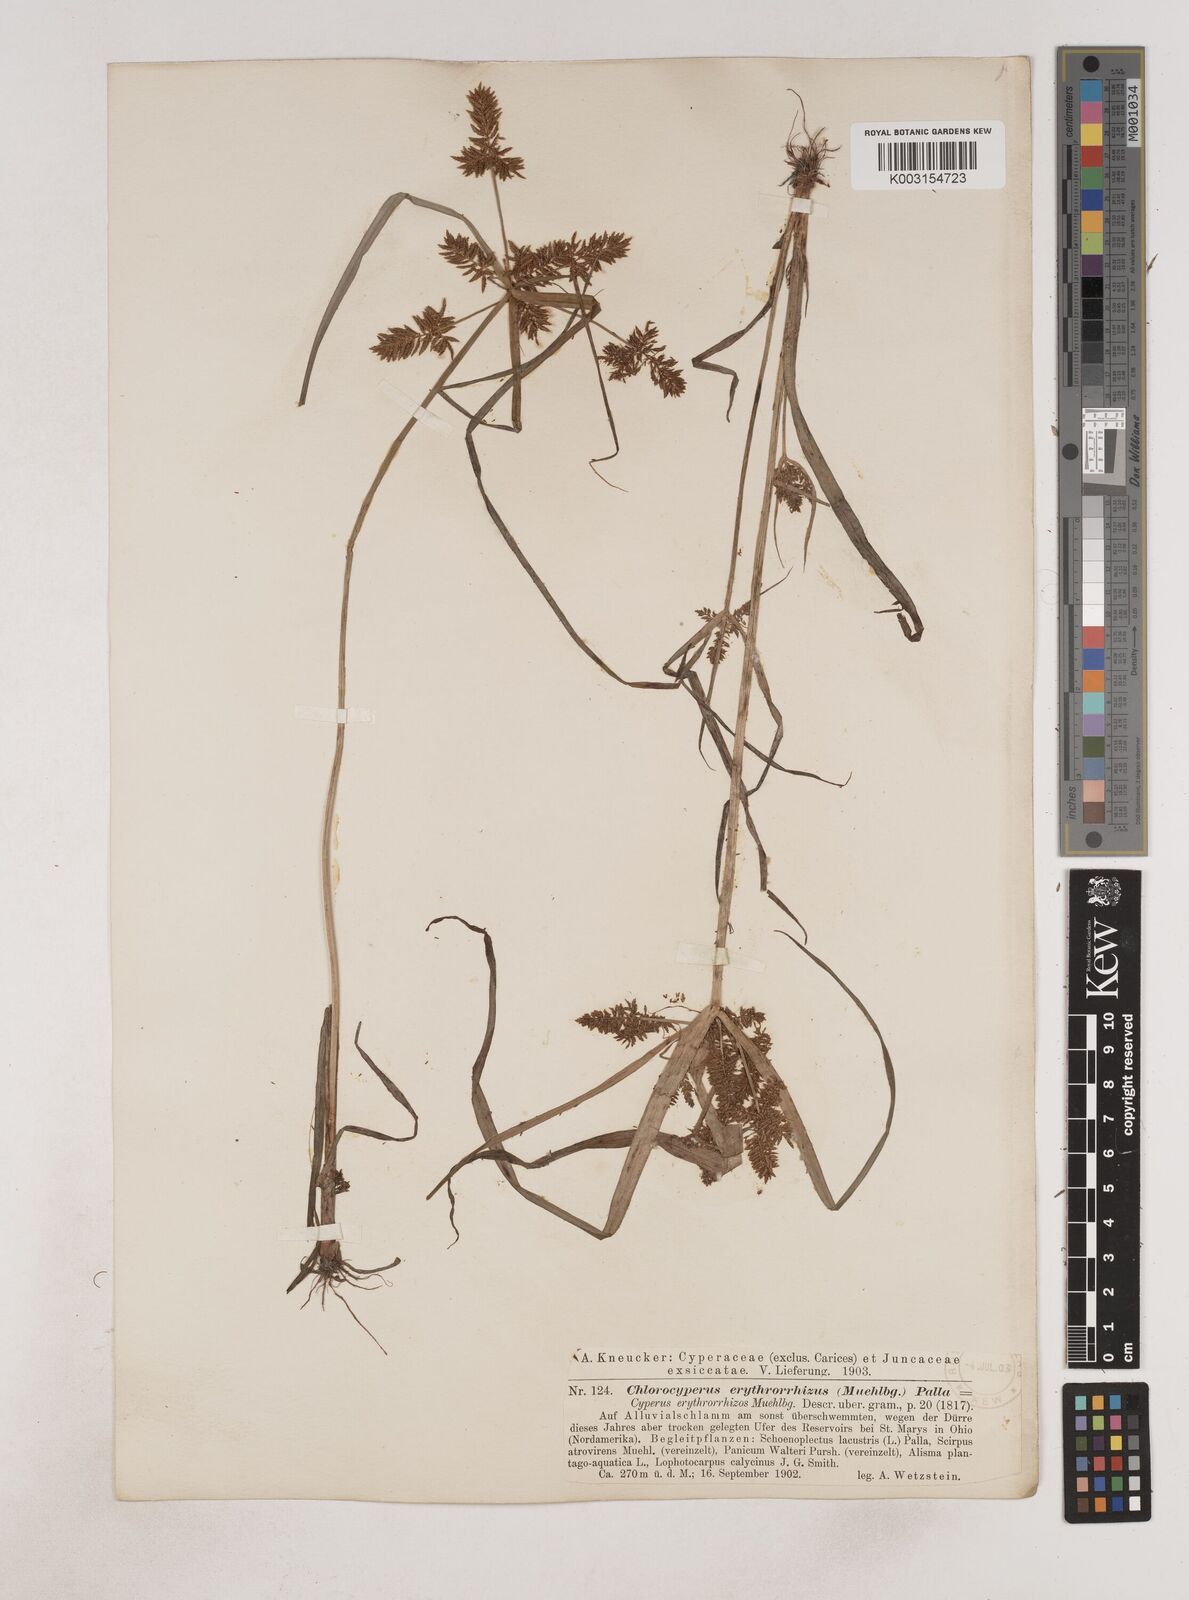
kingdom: Plantae
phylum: Tracheophyta
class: Liliopsida
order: Poales
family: Cyperaceae
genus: Cyperus
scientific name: Cyperus erythrorhizos
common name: Red-root flat sedge
